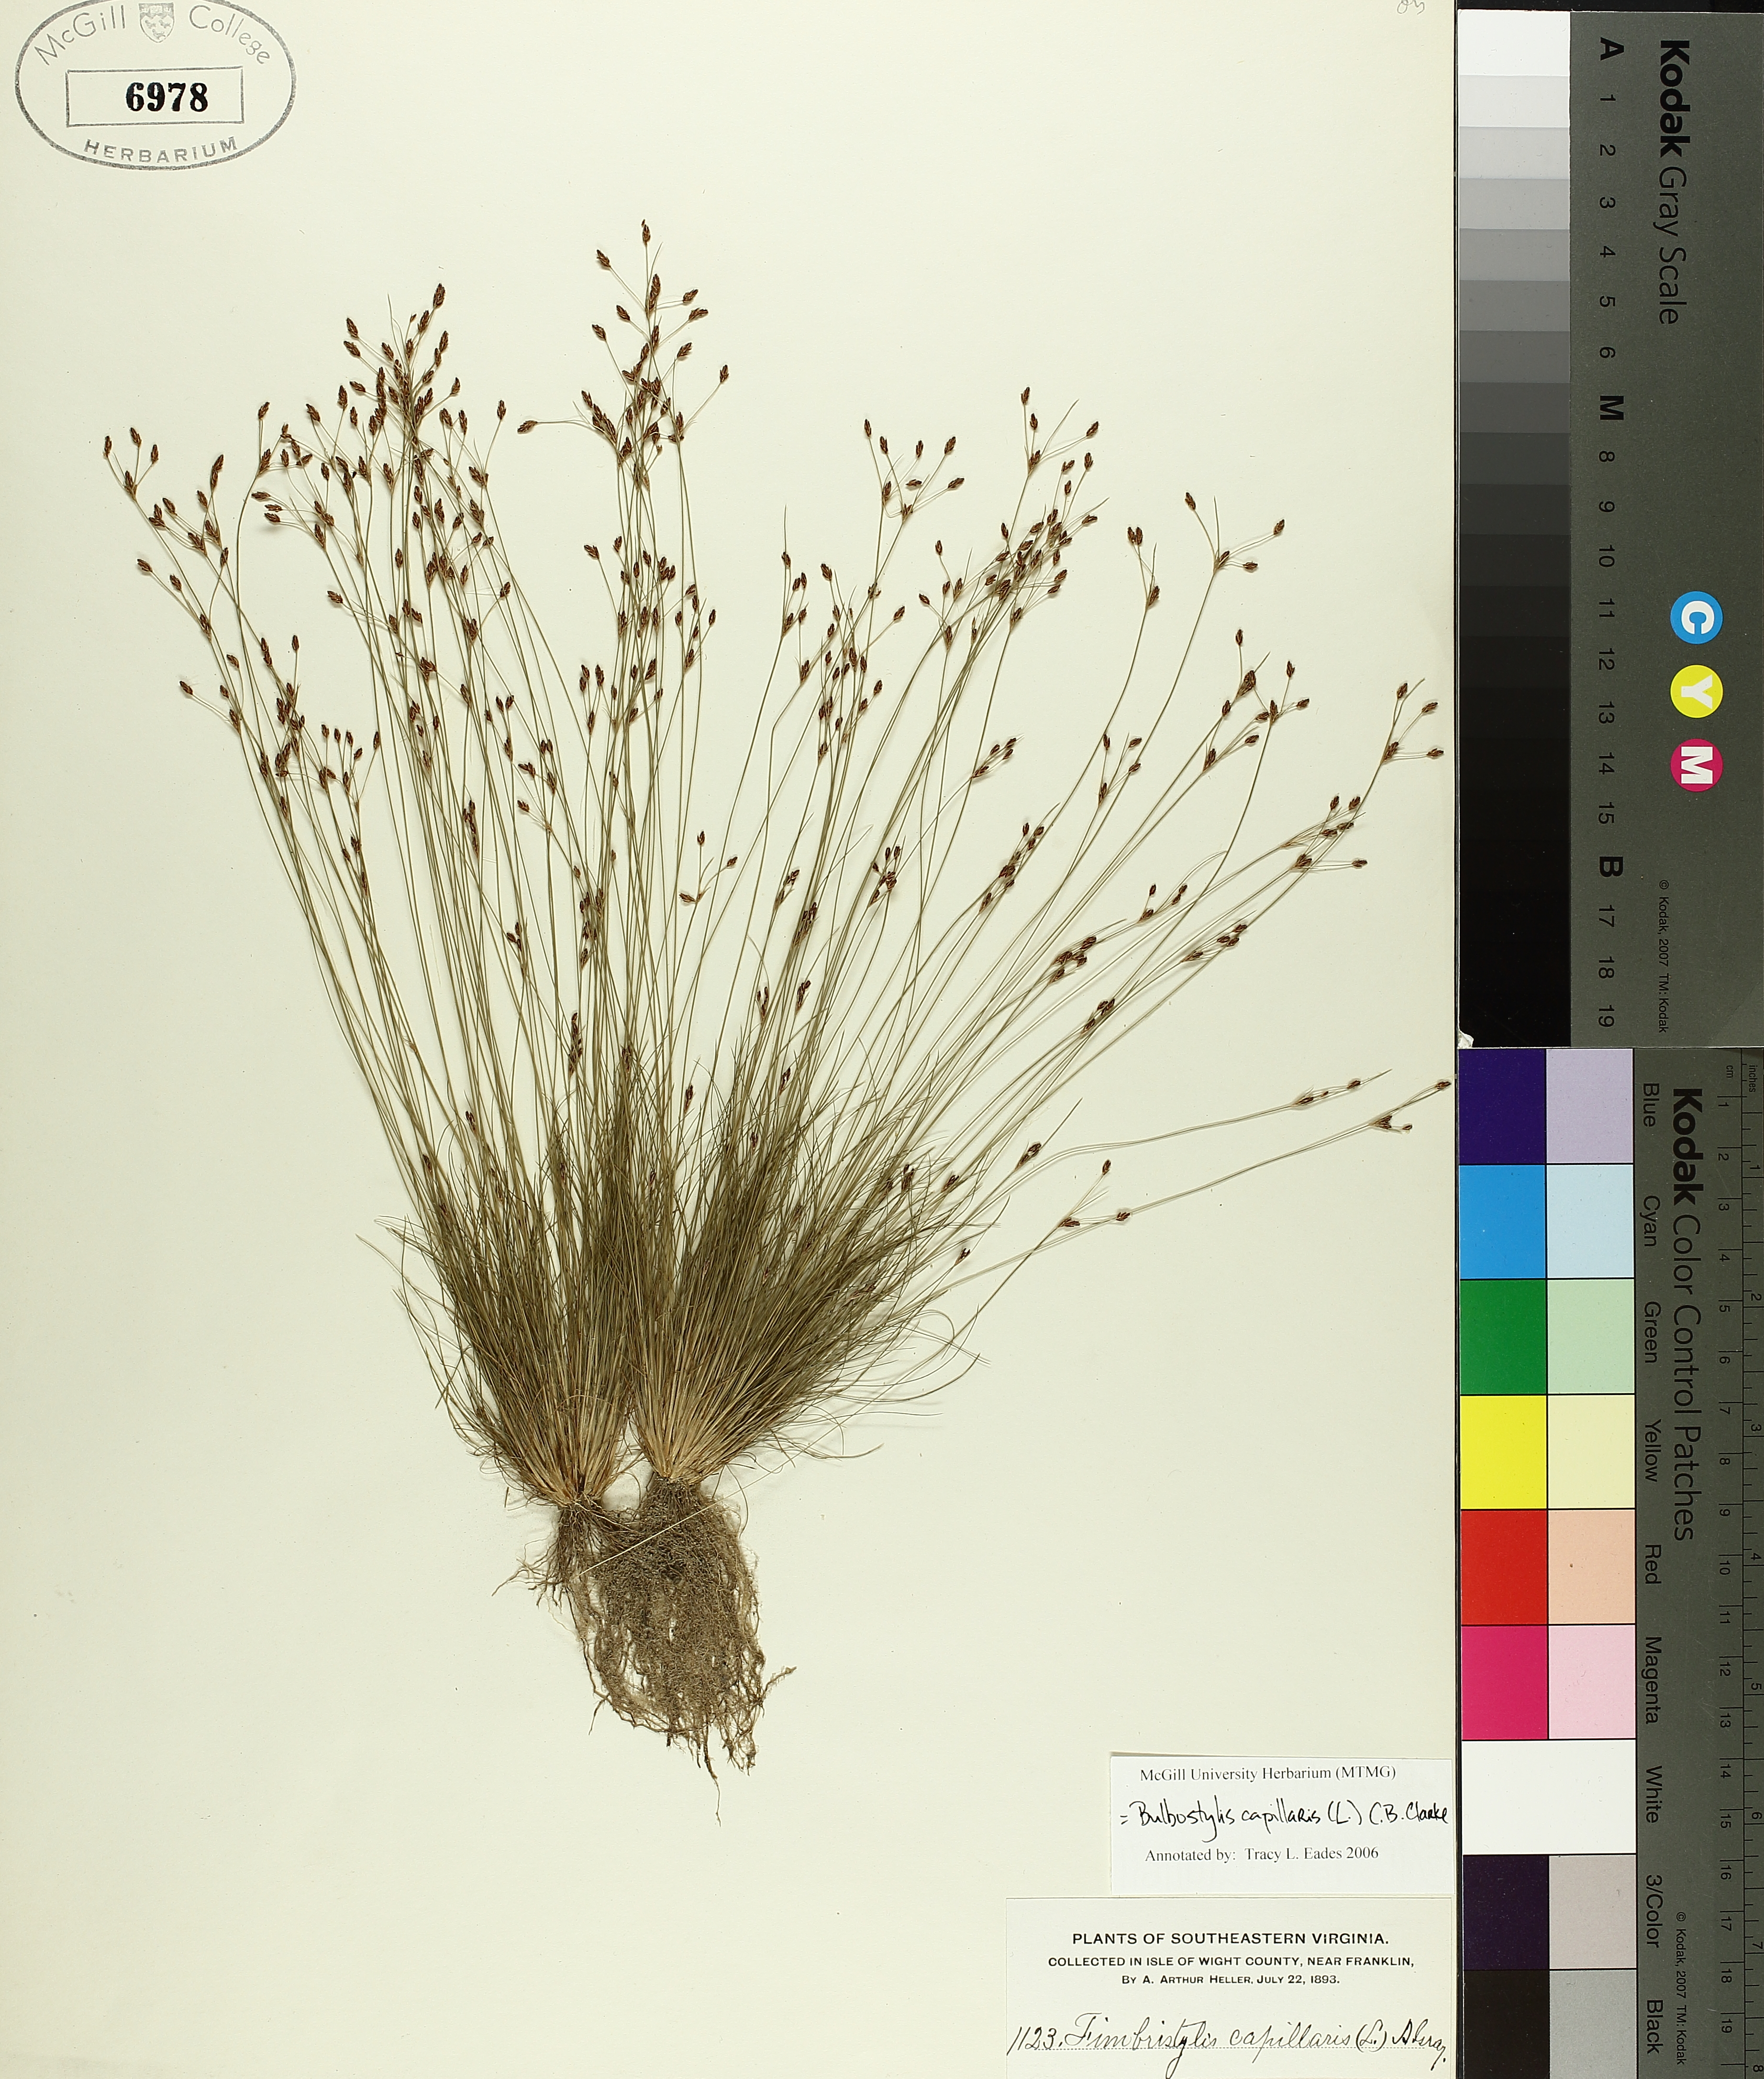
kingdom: Plantae
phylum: Tracheophyta
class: Liliopsida
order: Poales
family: Cyperaceae
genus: Bulbostylis
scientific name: Bulbostylis capillaris
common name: Densetuft hairsedge
